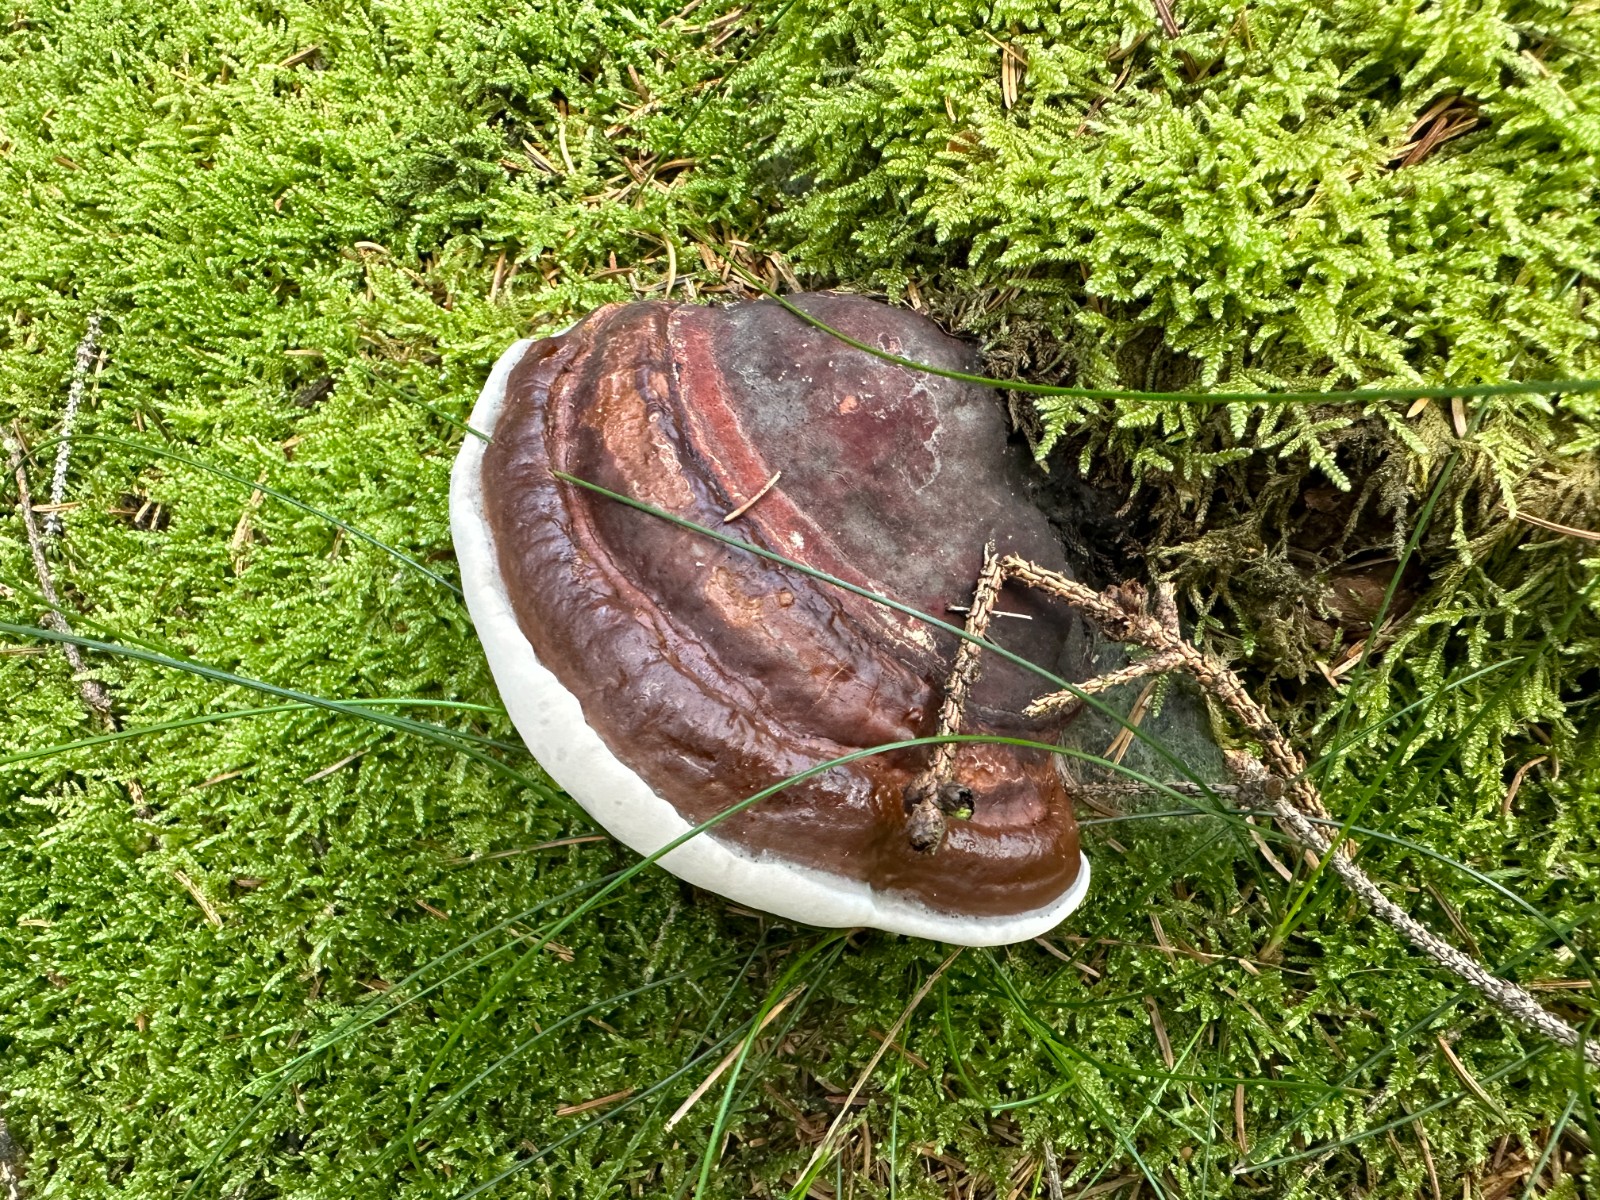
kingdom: Fungi
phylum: Basidiomycota
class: Agaricomycetes
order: Polyporales
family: Polyporaceae
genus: Ganoderma
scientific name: Ganoderma lucidum
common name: skinnende lakporesvamp
